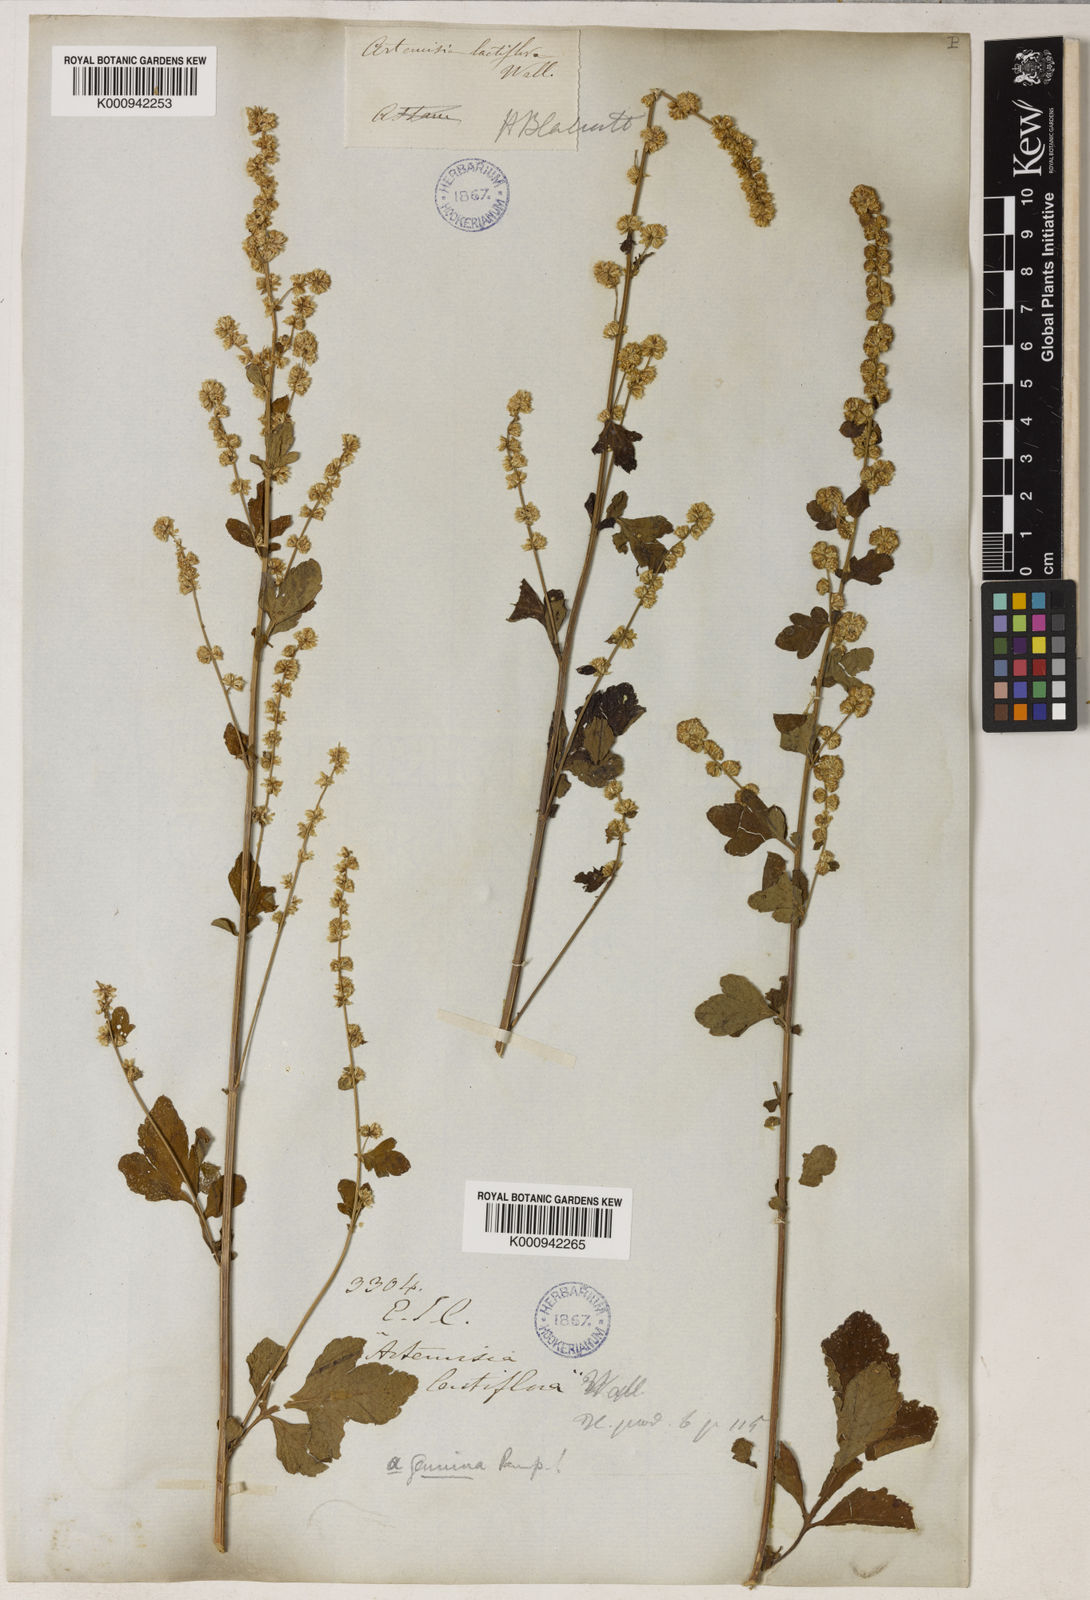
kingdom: Plantae
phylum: Tracheophyta
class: Magnoliopsida
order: Asterales
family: Asteraceae
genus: Artemisia
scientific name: Artemisia
